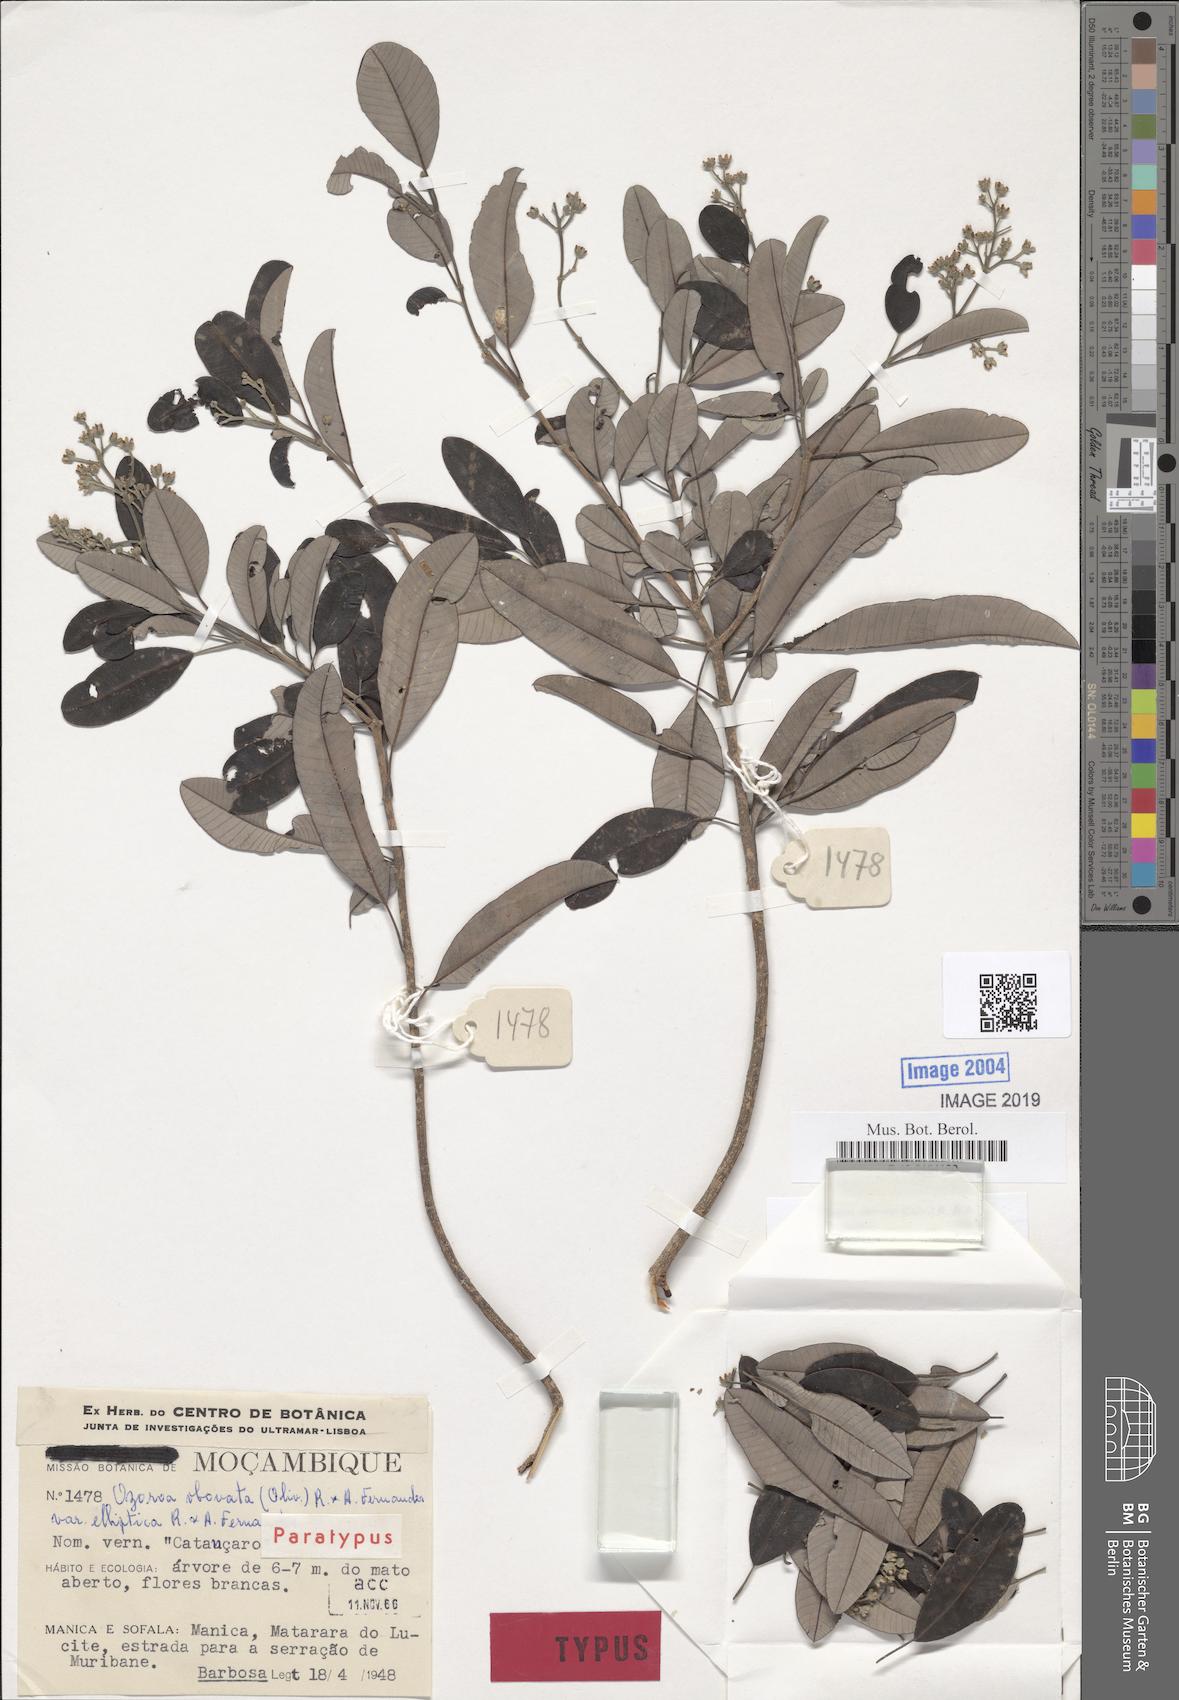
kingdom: Plantae
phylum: Tracheophyta
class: Magnoliopsida
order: Sapindales
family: Anacardiaceae
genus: Ozoroa
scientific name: Ozoroa obovata
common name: Broad-leaved resin tree
